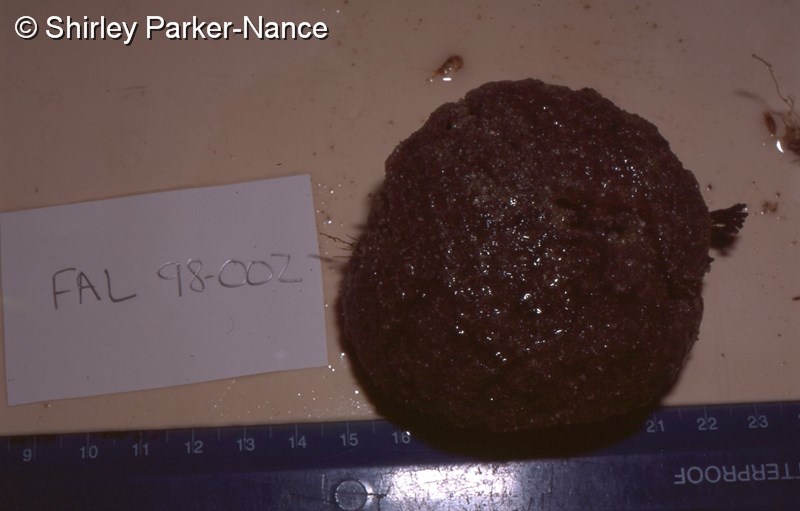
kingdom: Animalia
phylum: Chordata
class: Ascidiacea
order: Aplousobranchia
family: Polyclinidae
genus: Aplidium
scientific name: Aplidium
